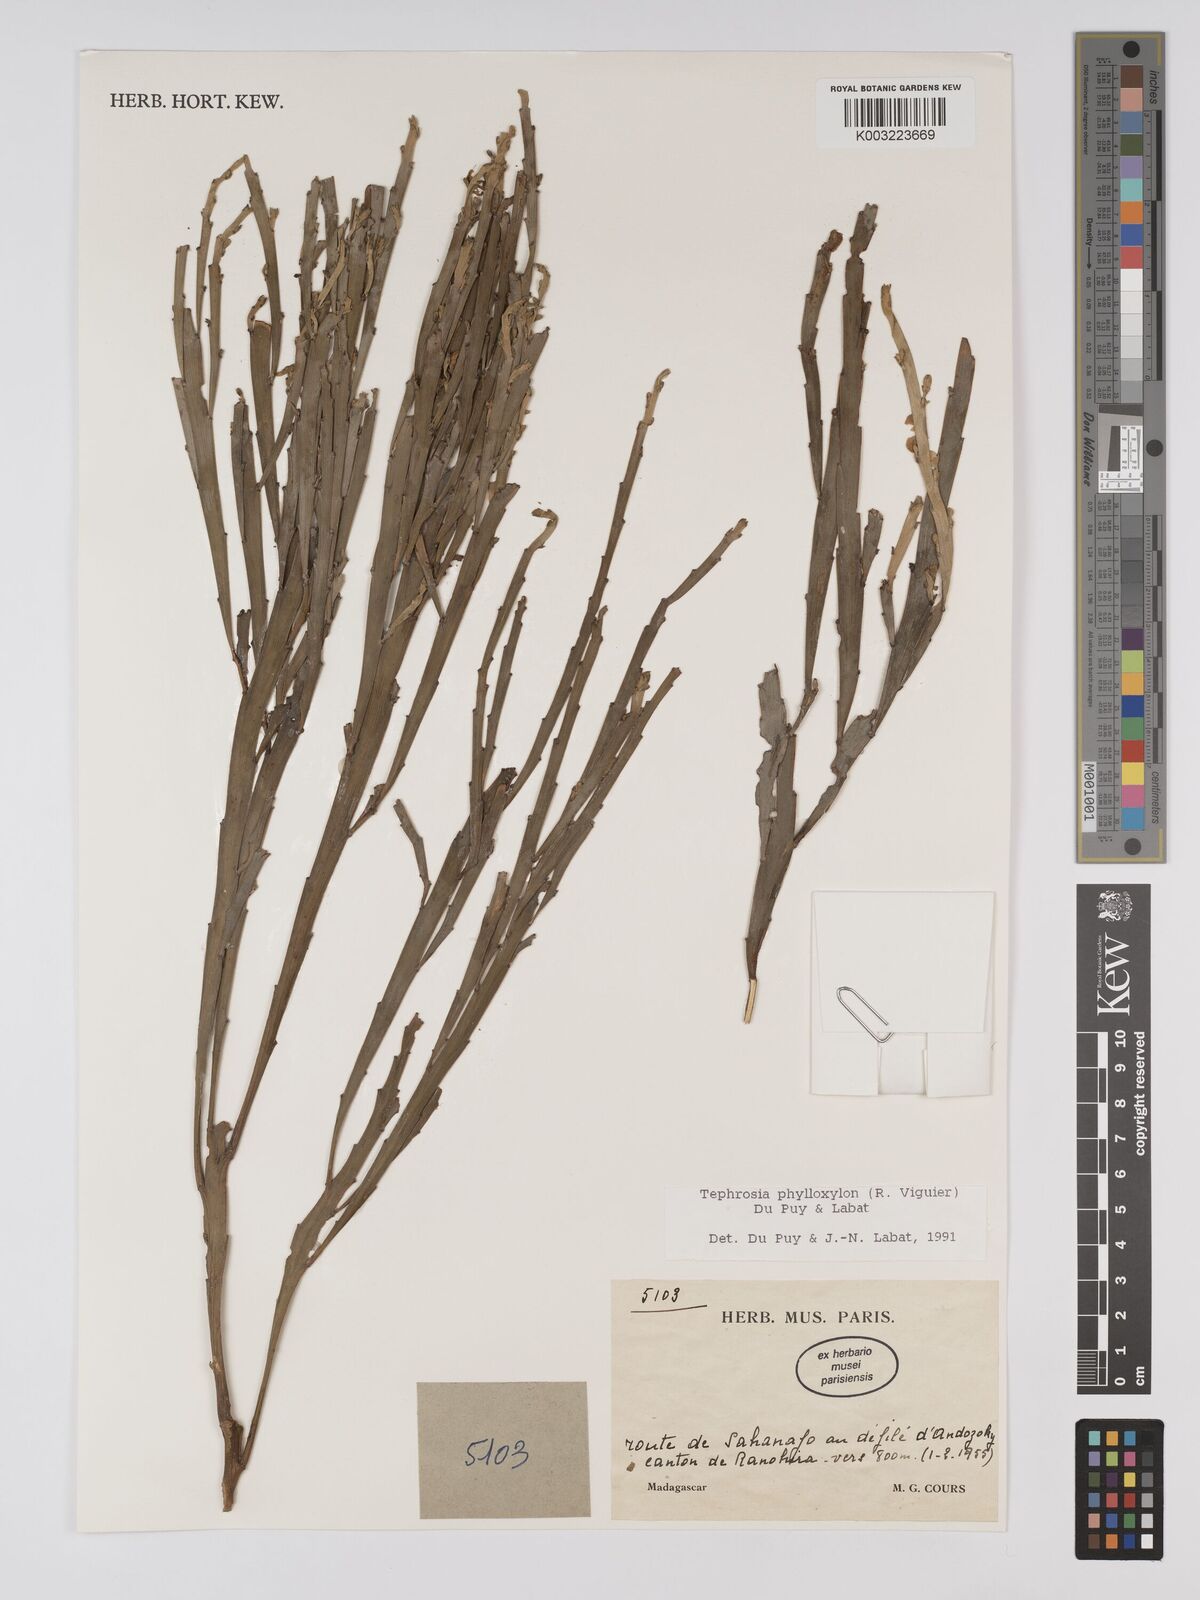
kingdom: Plantae
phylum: Tracheophyta
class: Magnoliopsida
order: Fabales
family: Fabaceae
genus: Tephrosia
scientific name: Tephrosia phylloxylon
